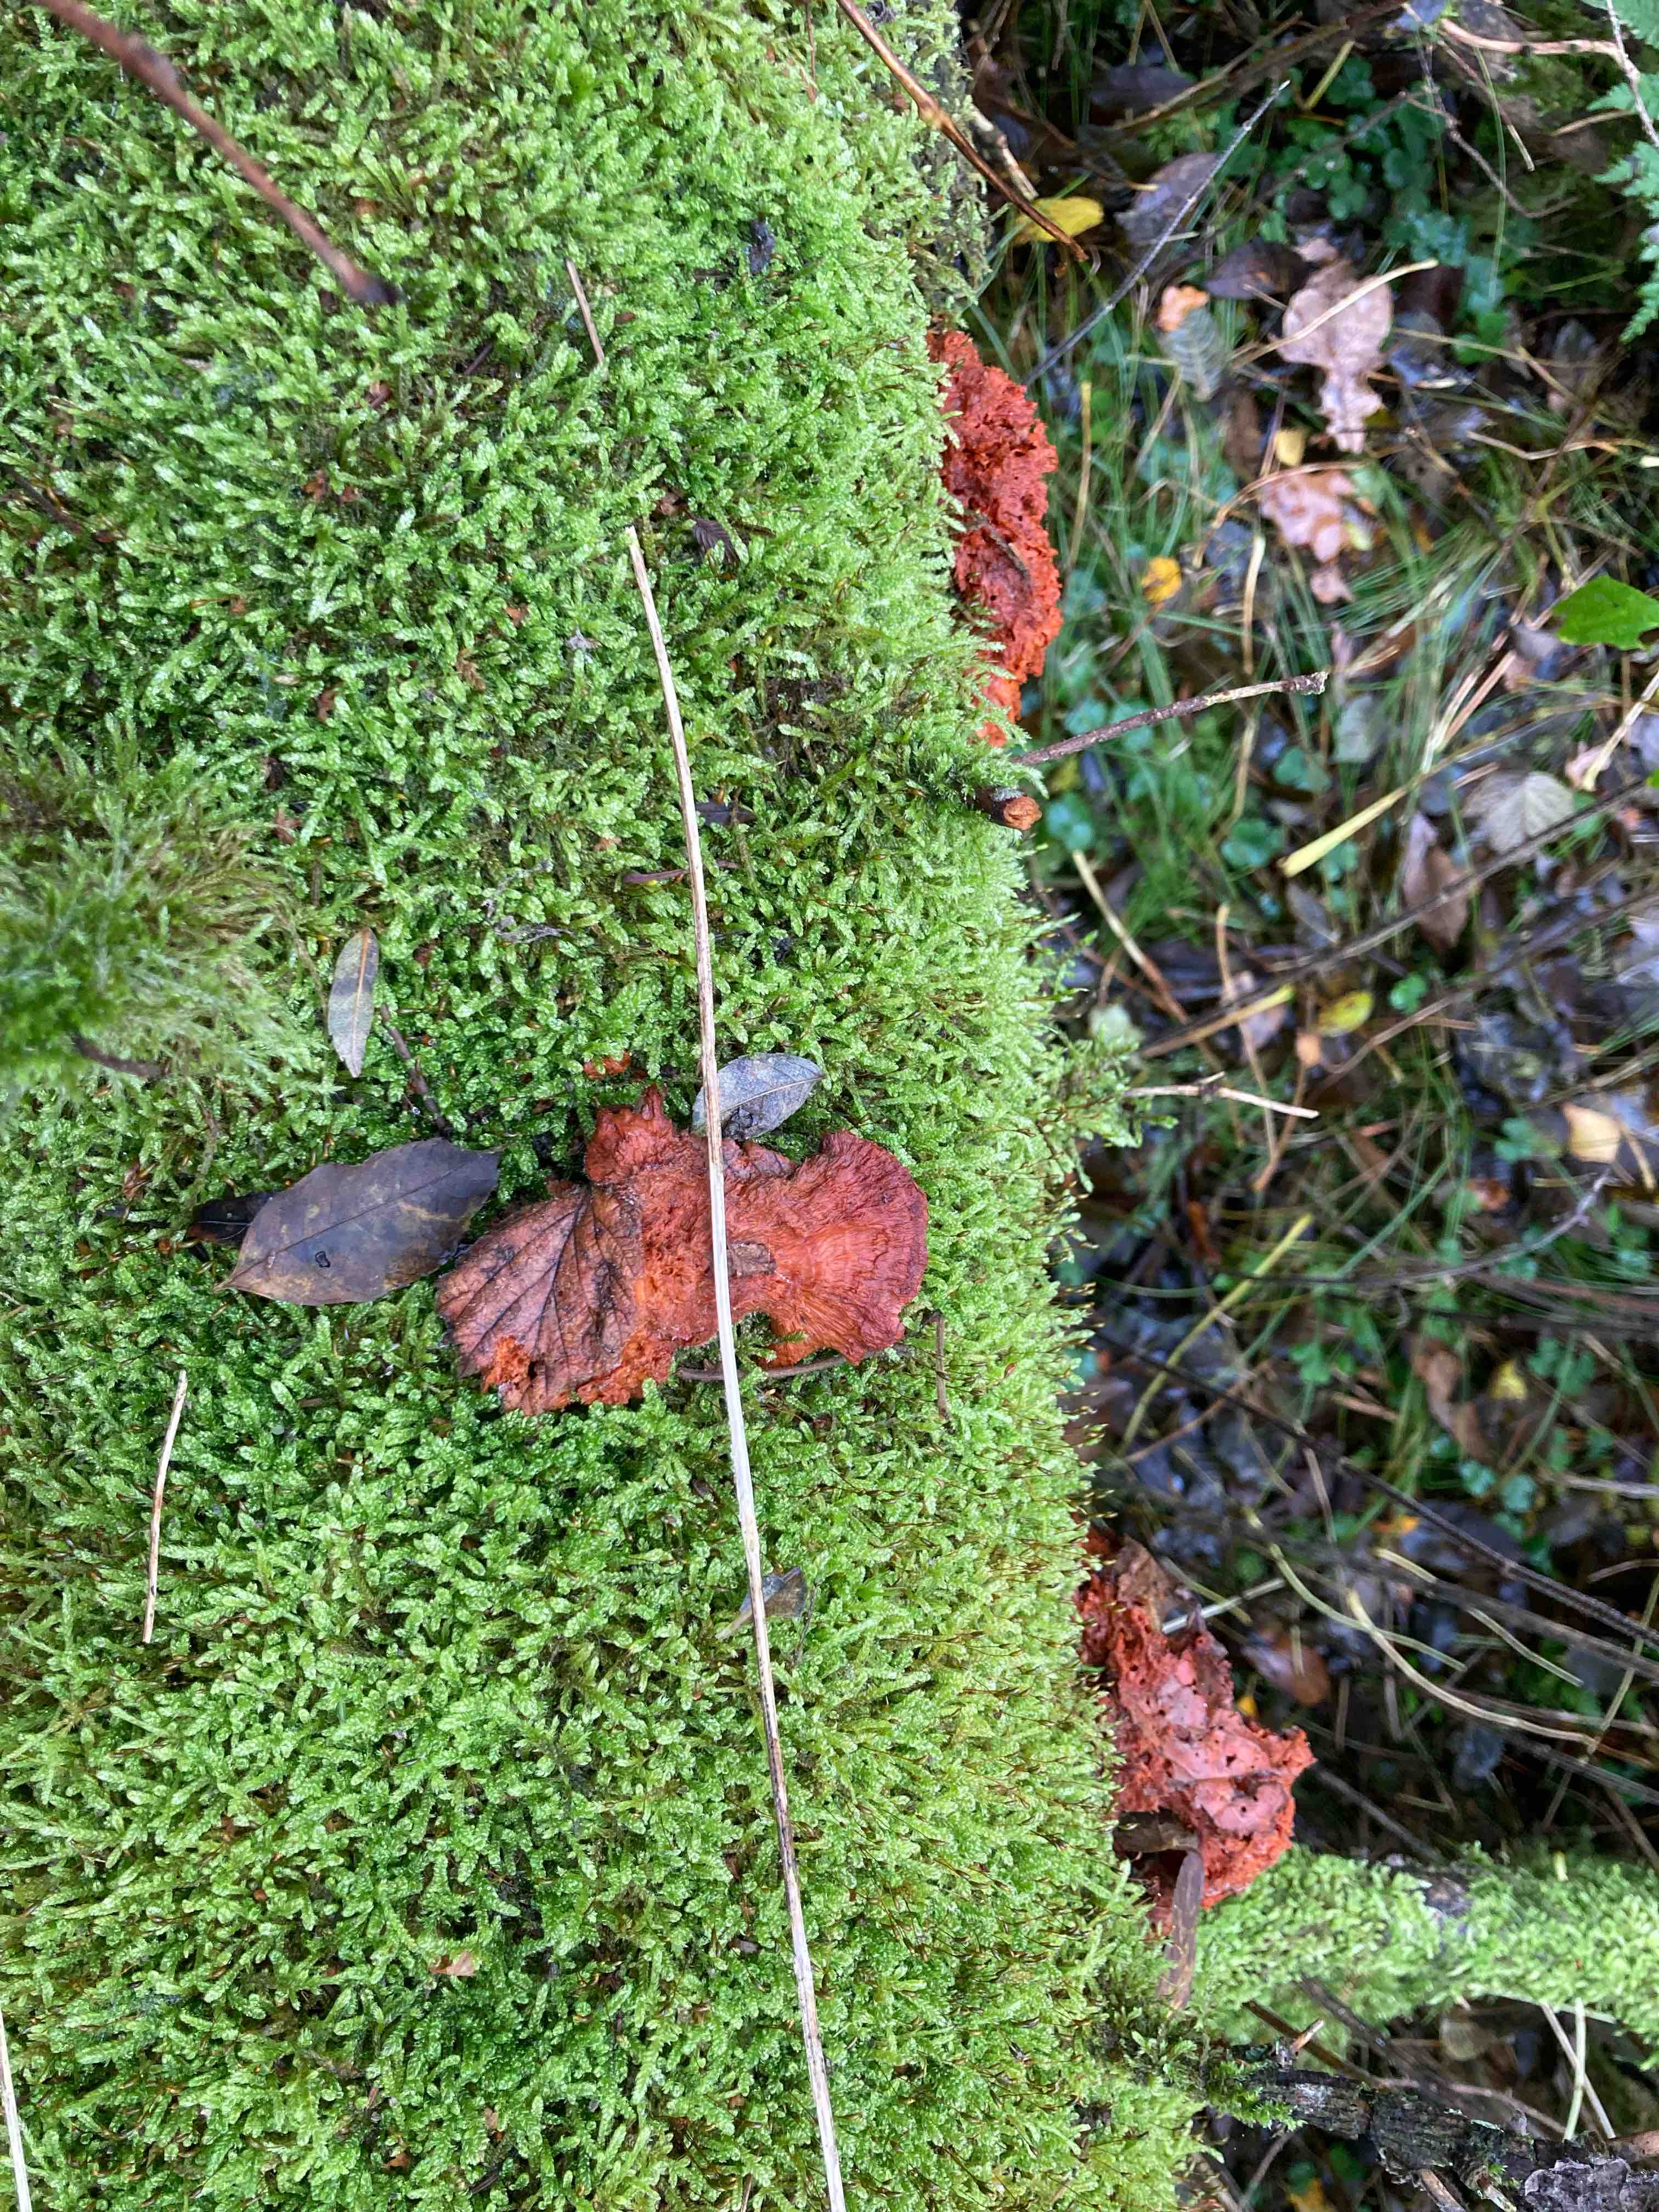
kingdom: Fungi
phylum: Basidiomycota
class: Agaricomycetes
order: Polyporales
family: Pycnoporellaceae
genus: Pycnoporellus
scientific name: Pycnoporellus fulgens
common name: flammeporesvamp
